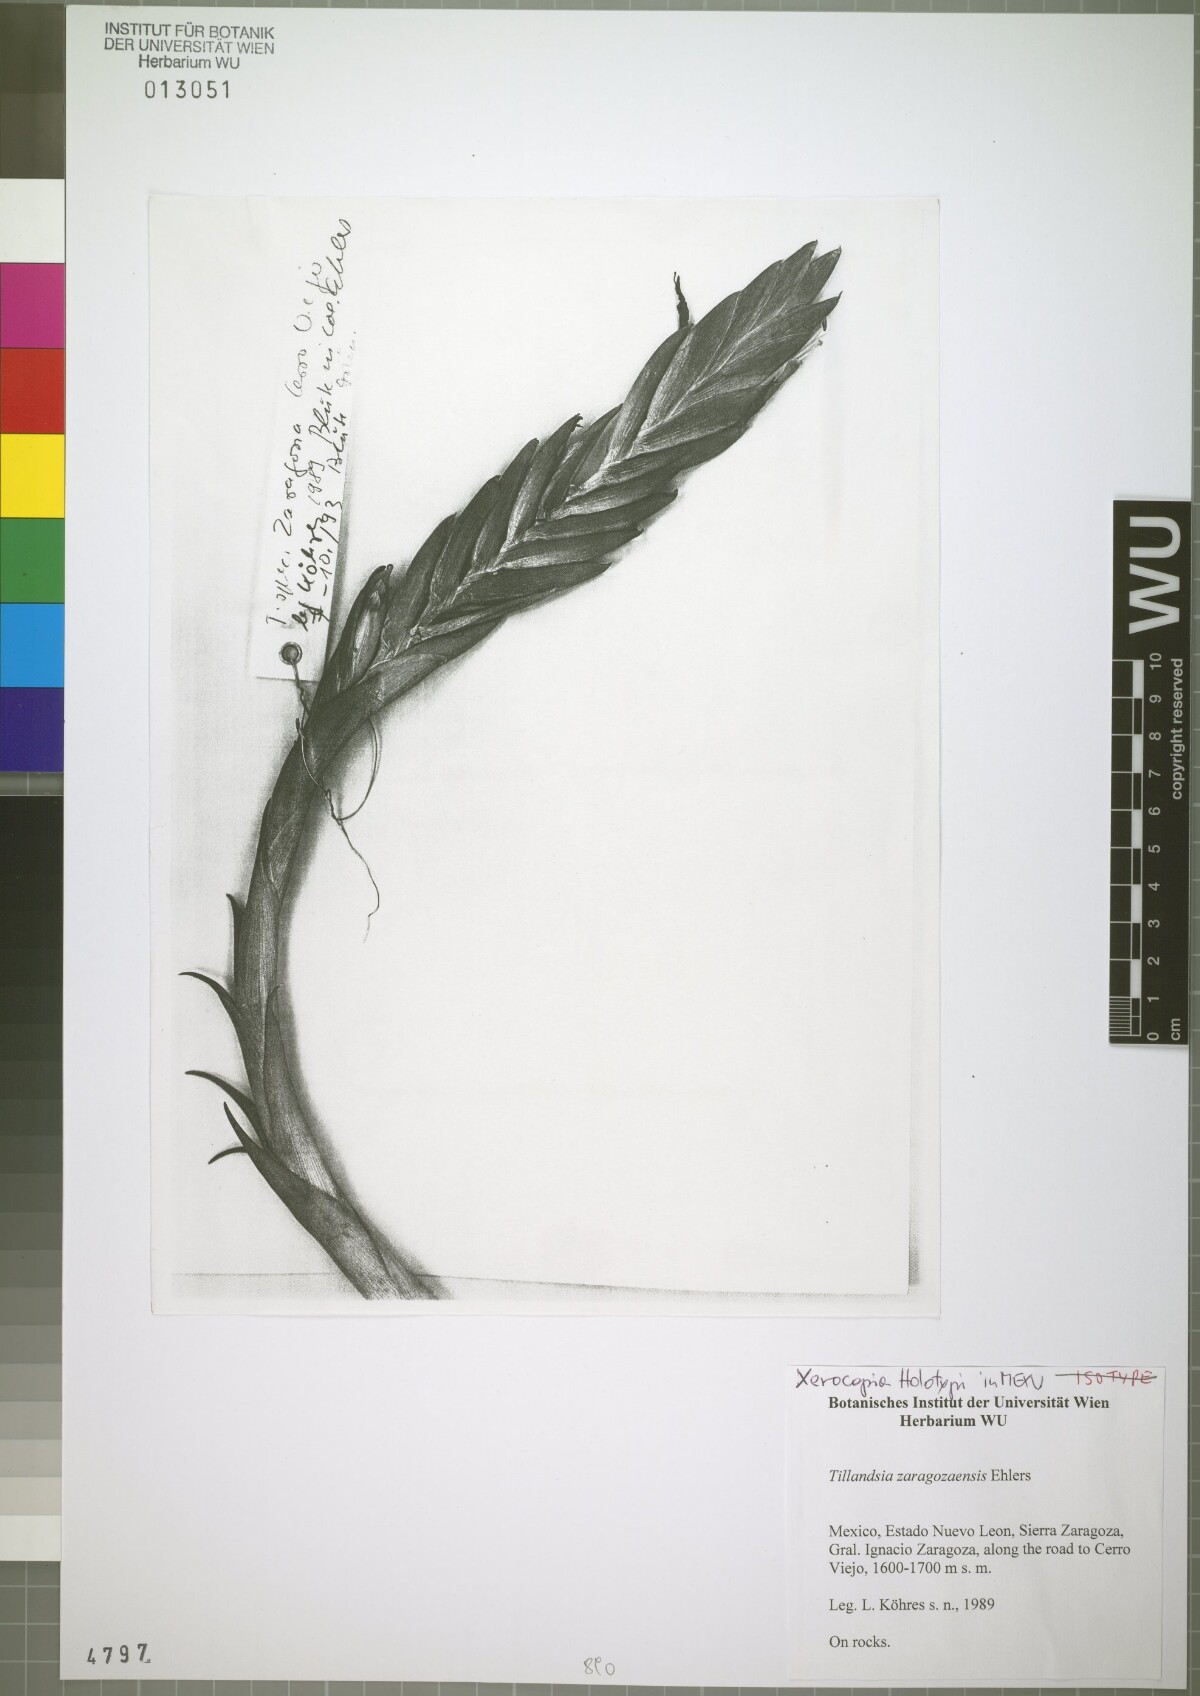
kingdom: Plantae
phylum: Tracheophyta
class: Liliopsida
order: Poales
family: Bromeliaceae
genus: Tillandsia
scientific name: Tillandsia zaragozaensis
